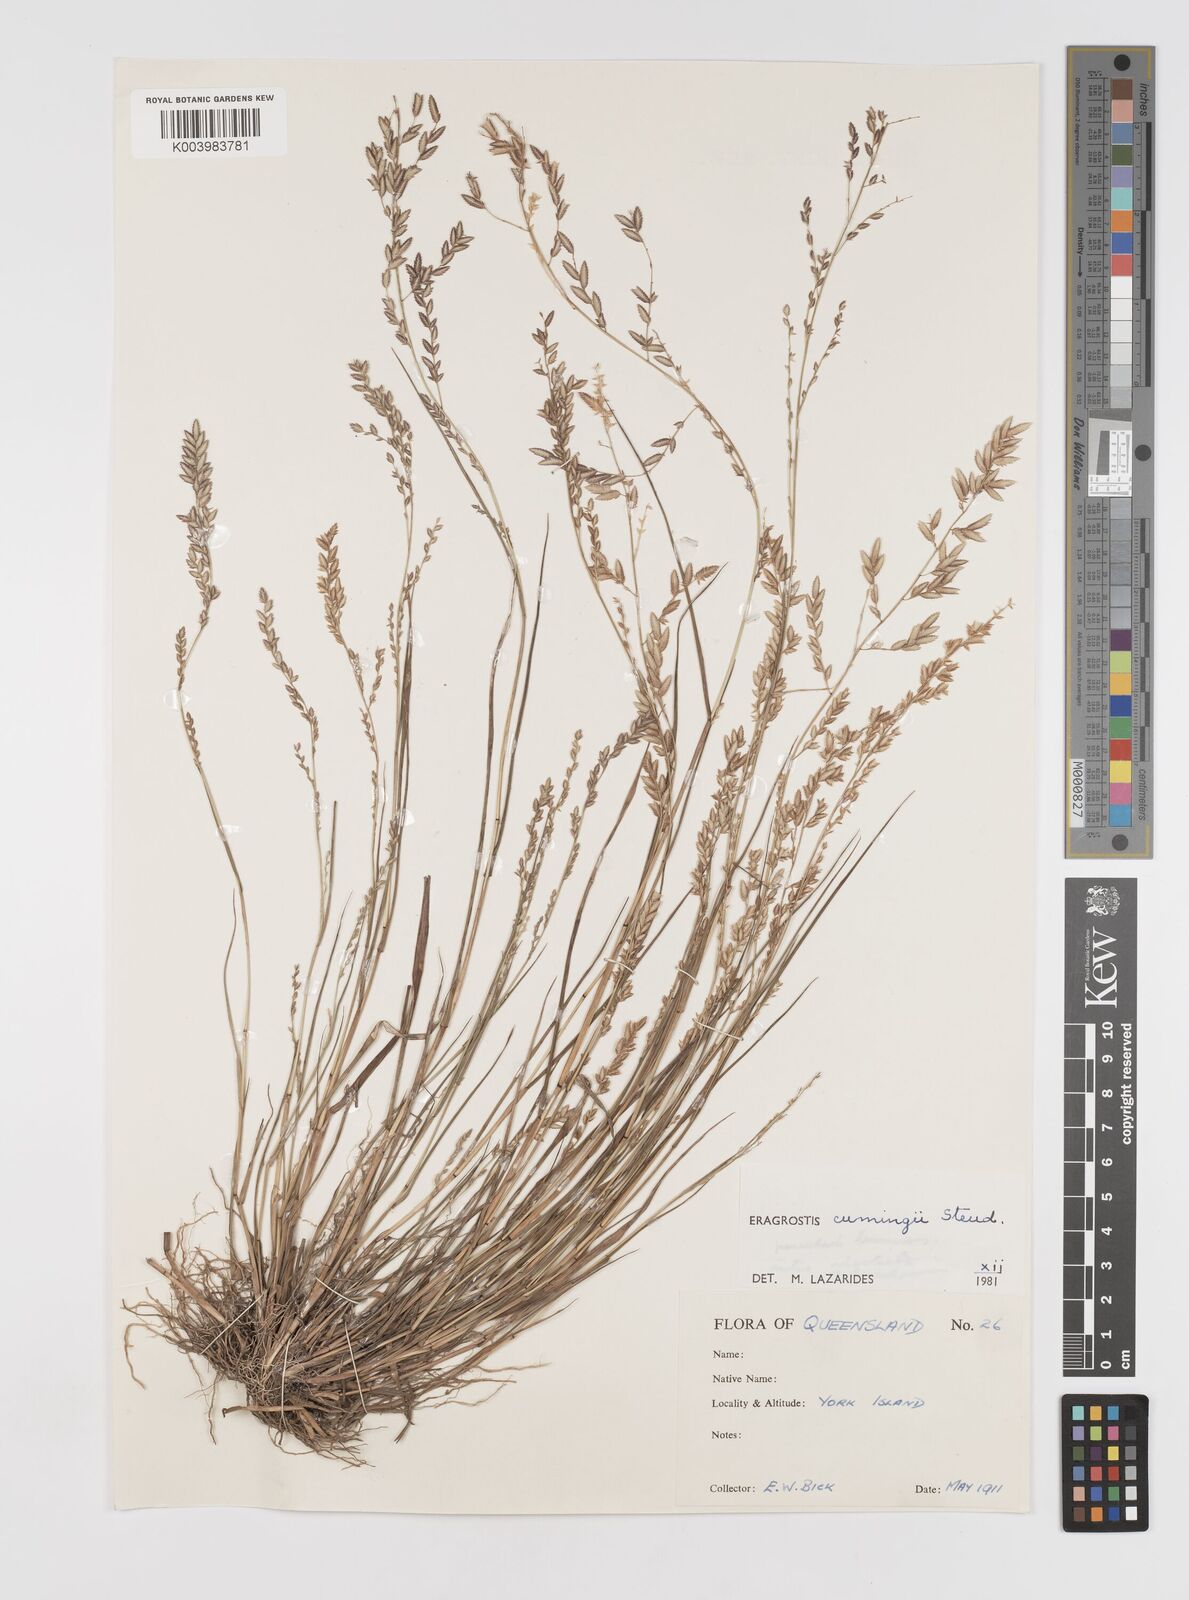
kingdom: Plantae
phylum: Tracheophyta
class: Liliopsida
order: Poales
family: Poaceae
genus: Eragrostis
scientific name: Eragrostis cumingii
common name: Cuming's lovegrass
